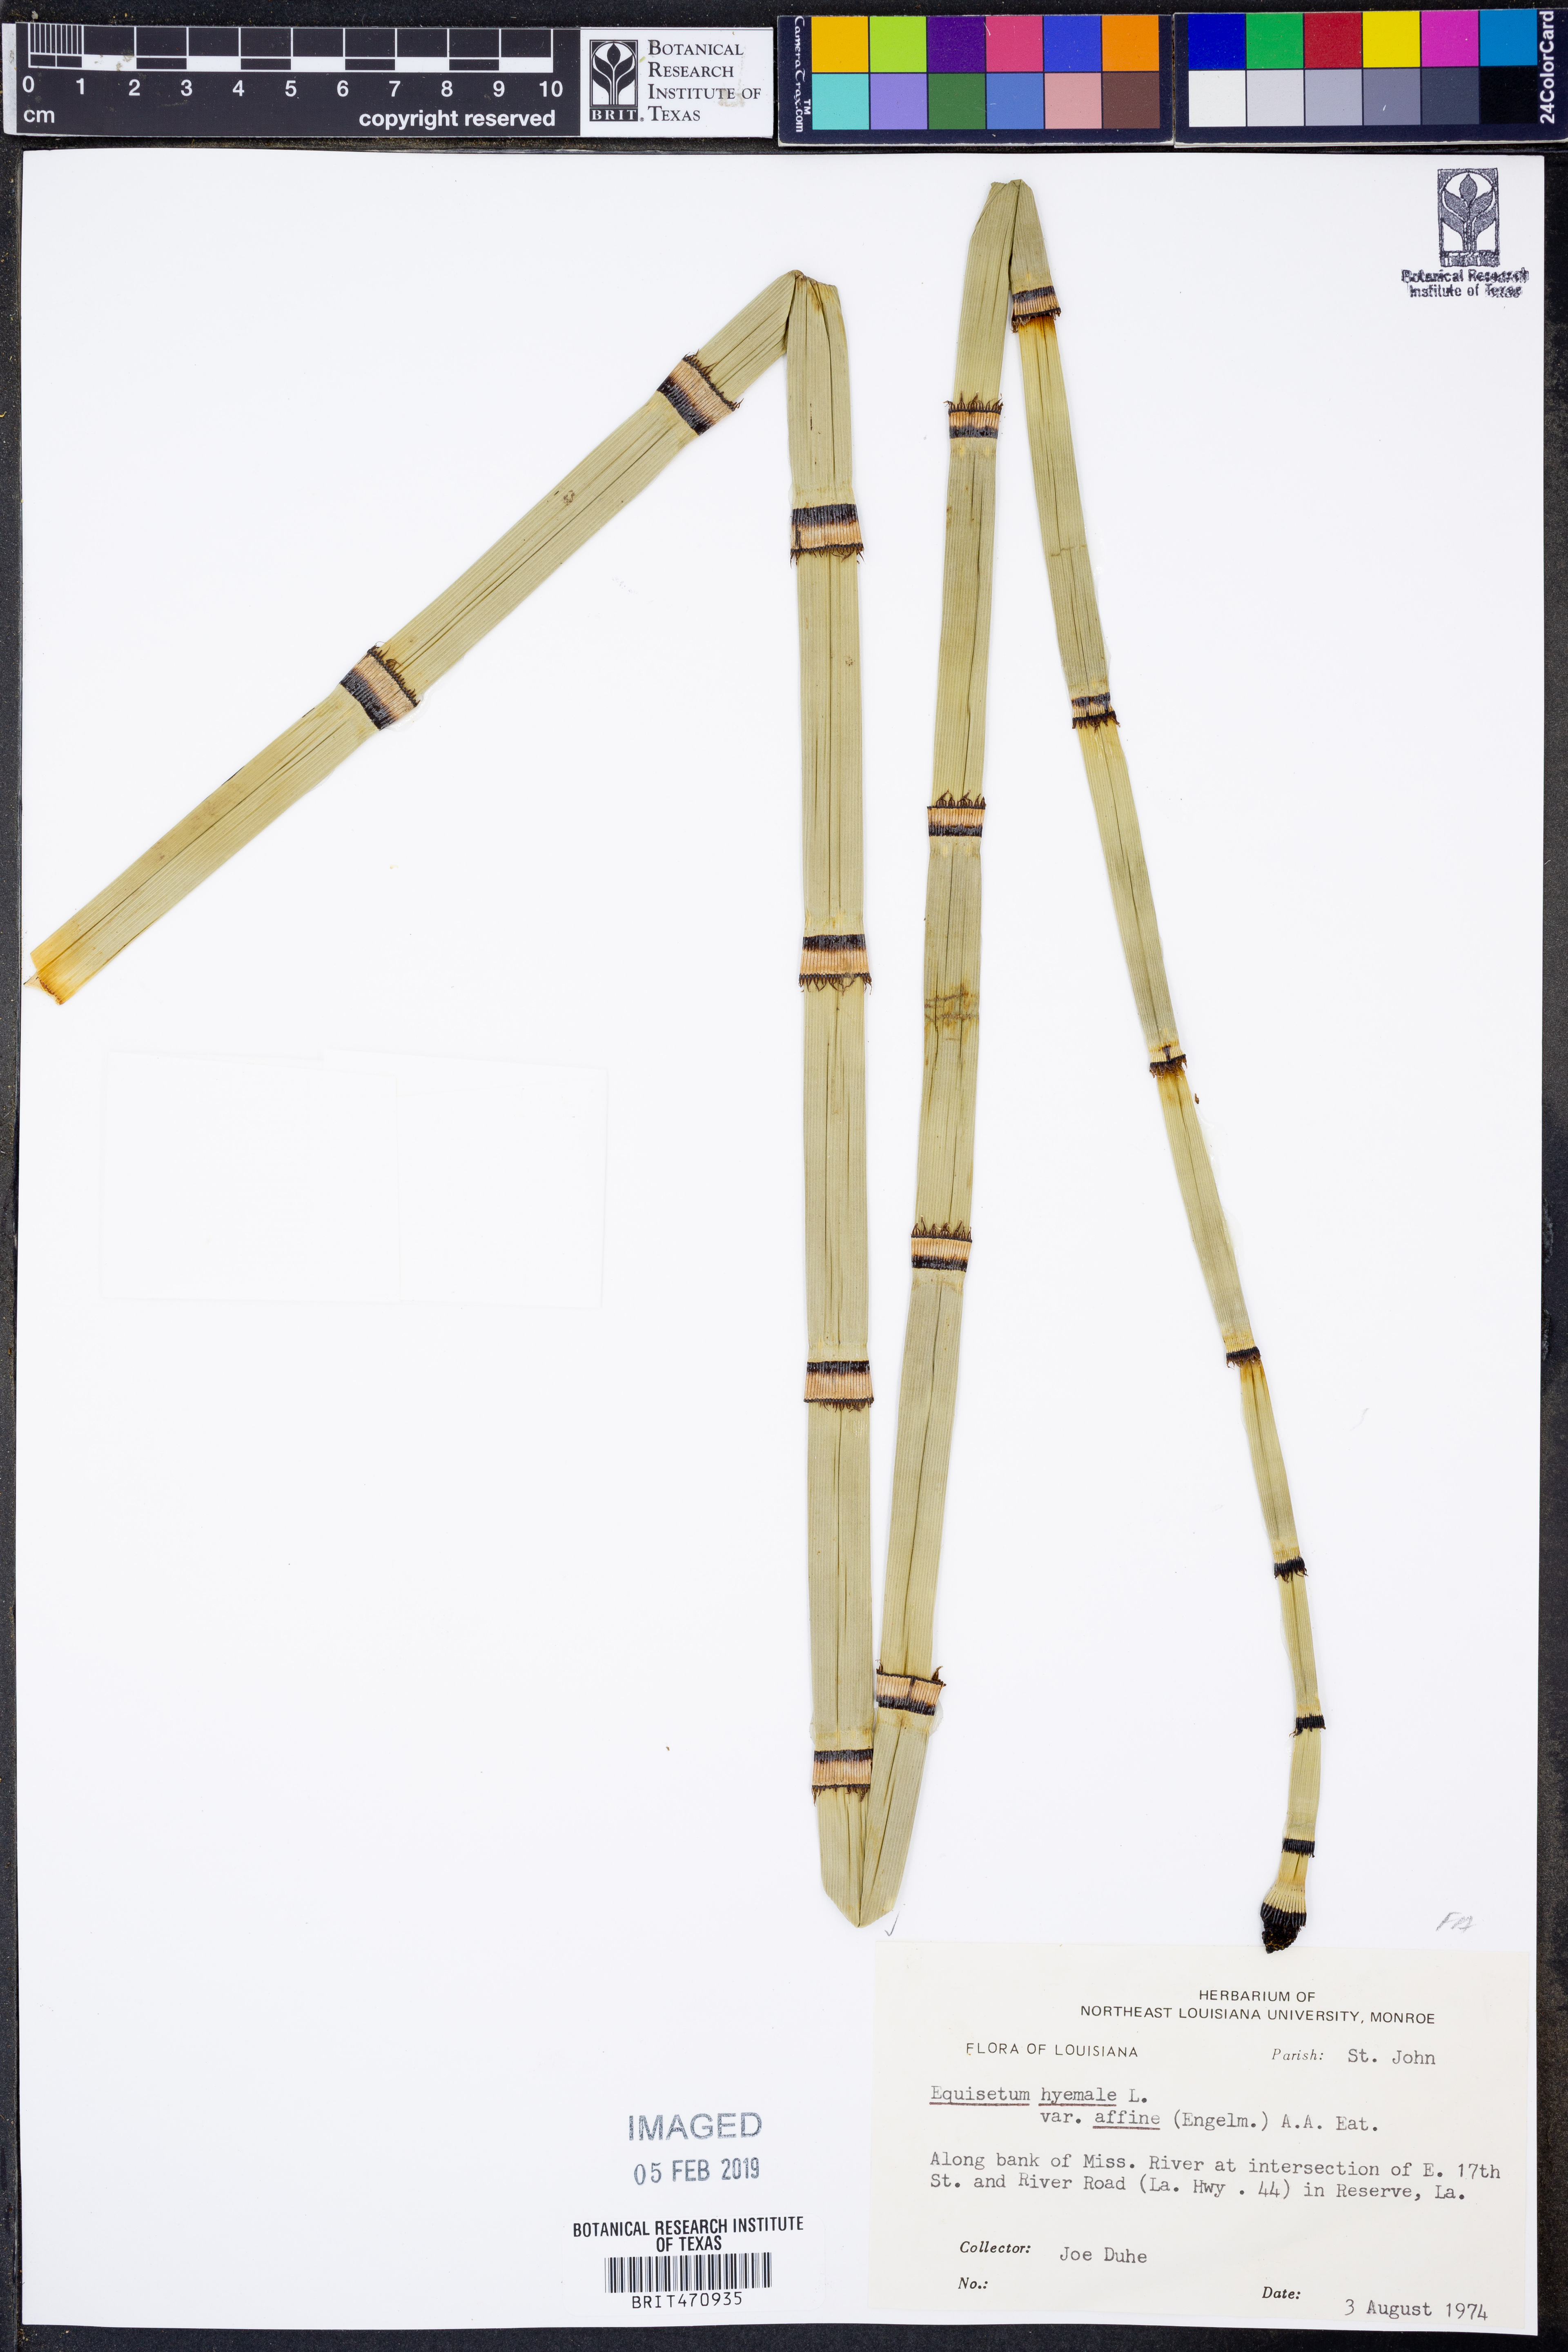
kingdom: Plantae
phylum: Tracheophyta
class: Polypodiopsida
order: Equisetales
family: Equisetaceae
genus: Equisetum
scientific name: Equisetum praealtum
